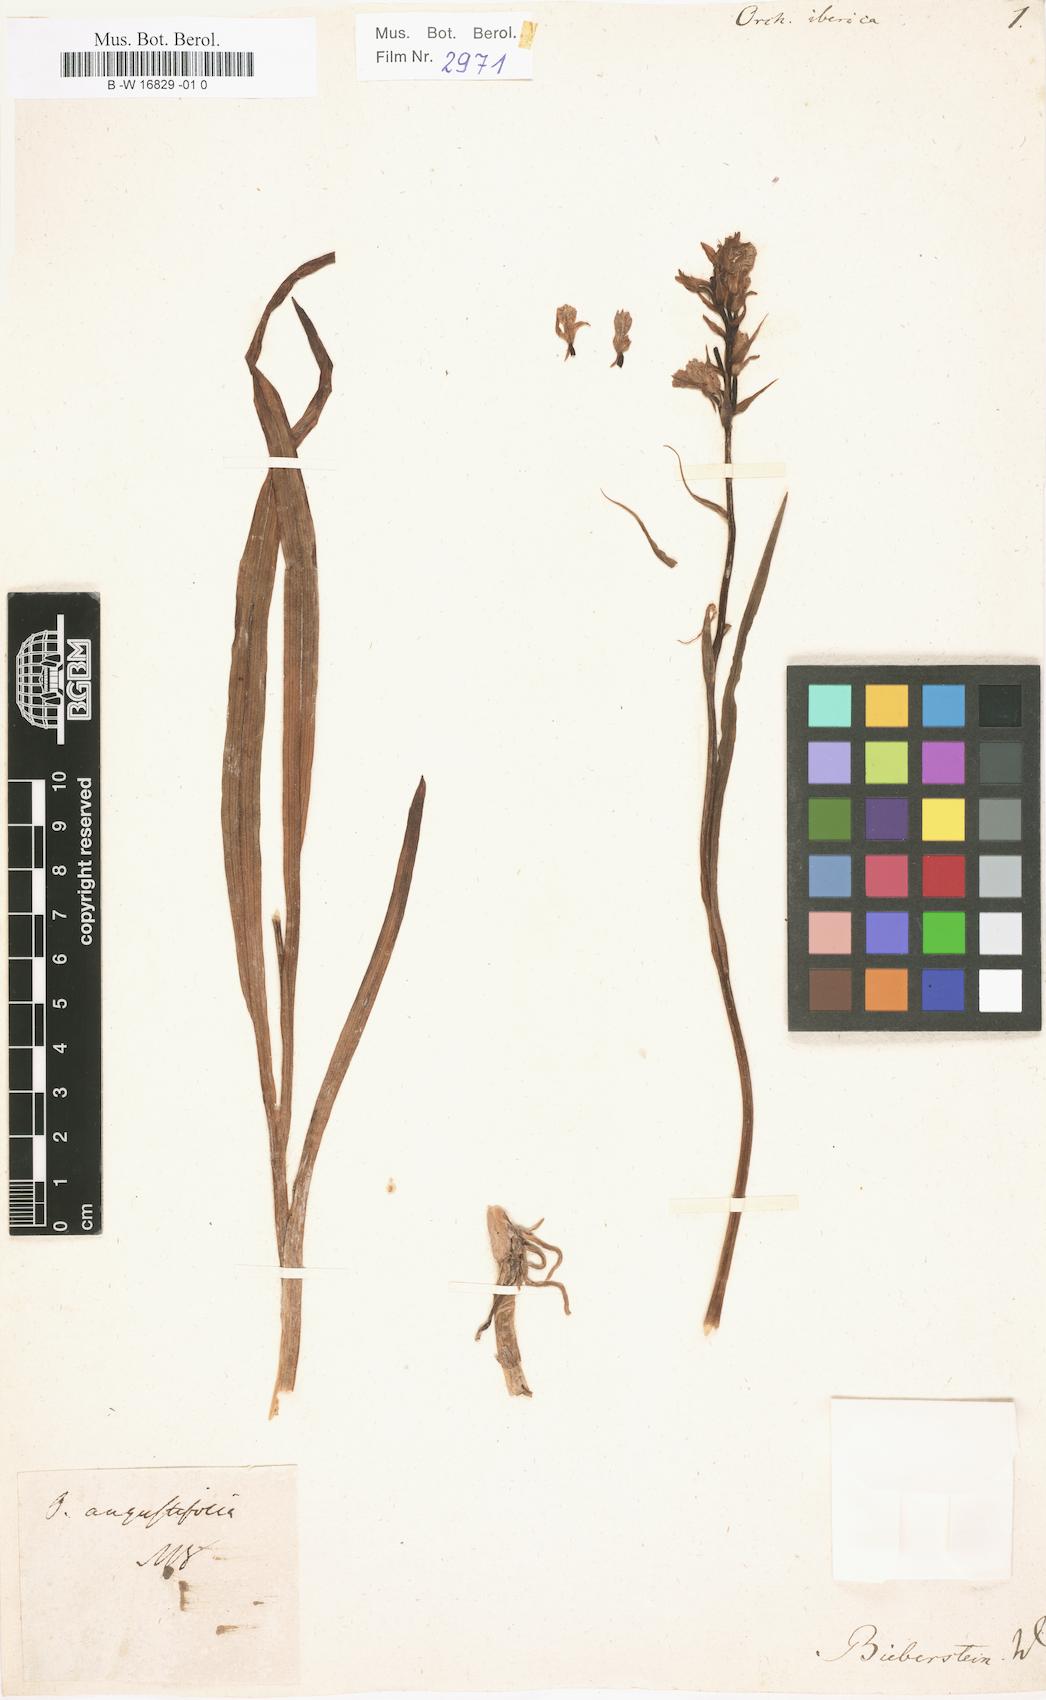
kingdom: Plantae
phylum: Tracheophyta
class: Liliopsida
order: Asparagales
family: Orchidaceae
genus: Dactylorhiza
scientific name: Dactylorhiza iberica
